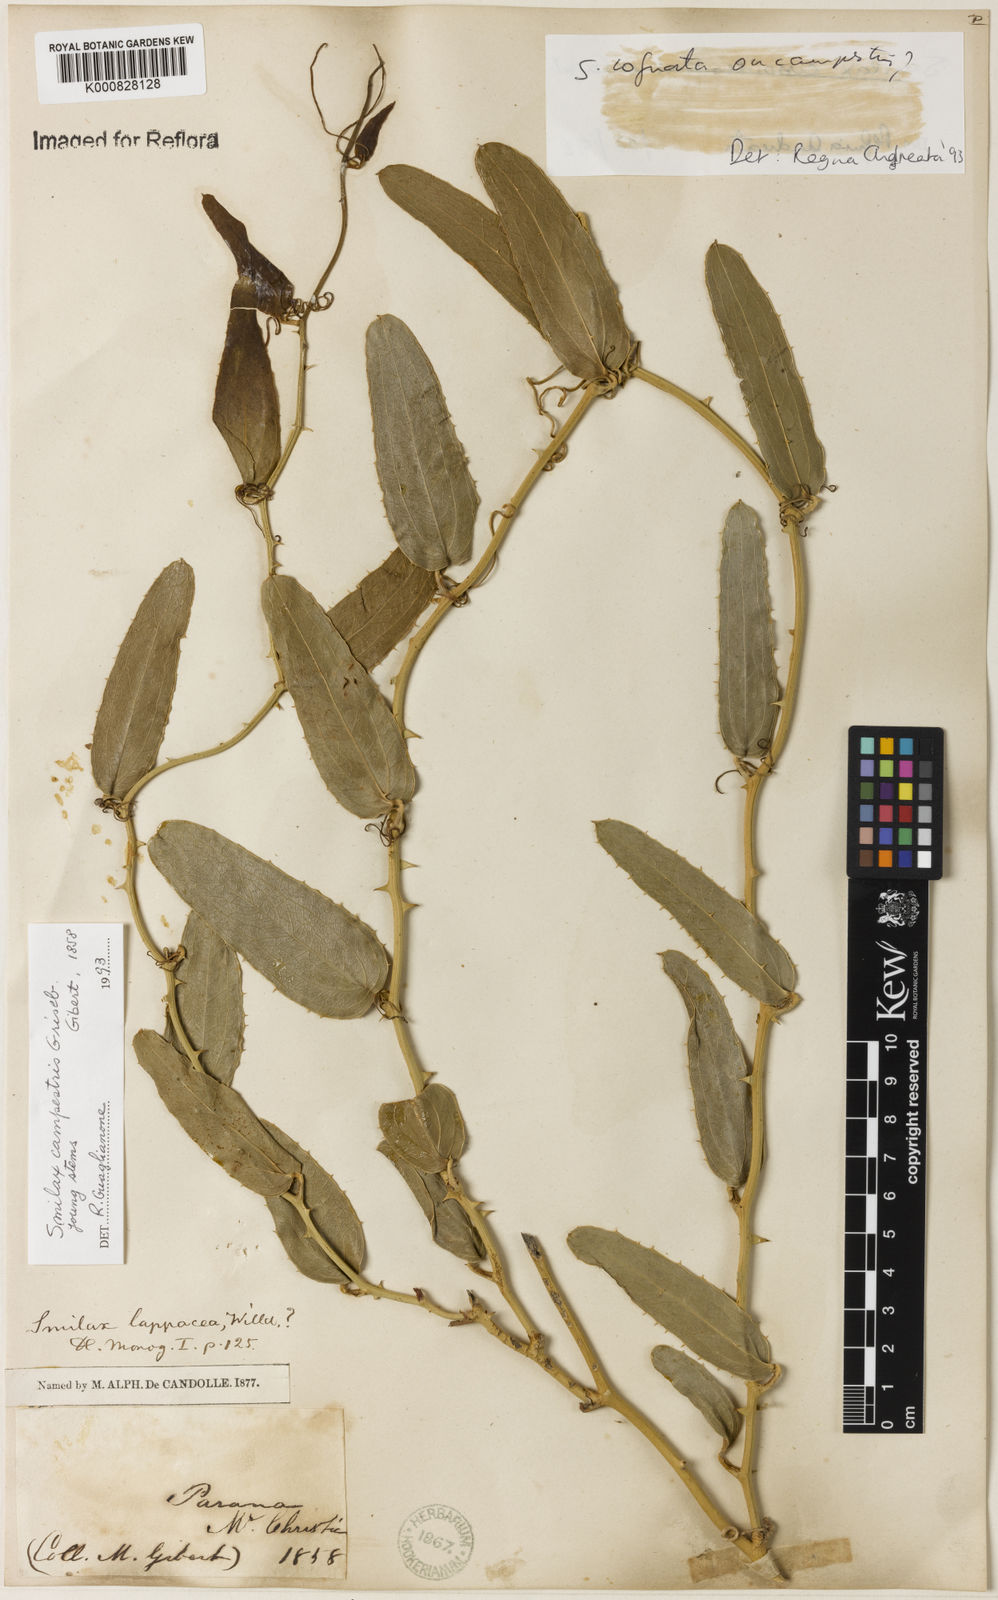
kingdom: Plantae
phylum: Tracheophyta
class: Liliopsida
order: Liliales
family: Smilacaceae
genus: Smilax
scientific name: Smilax cognata
